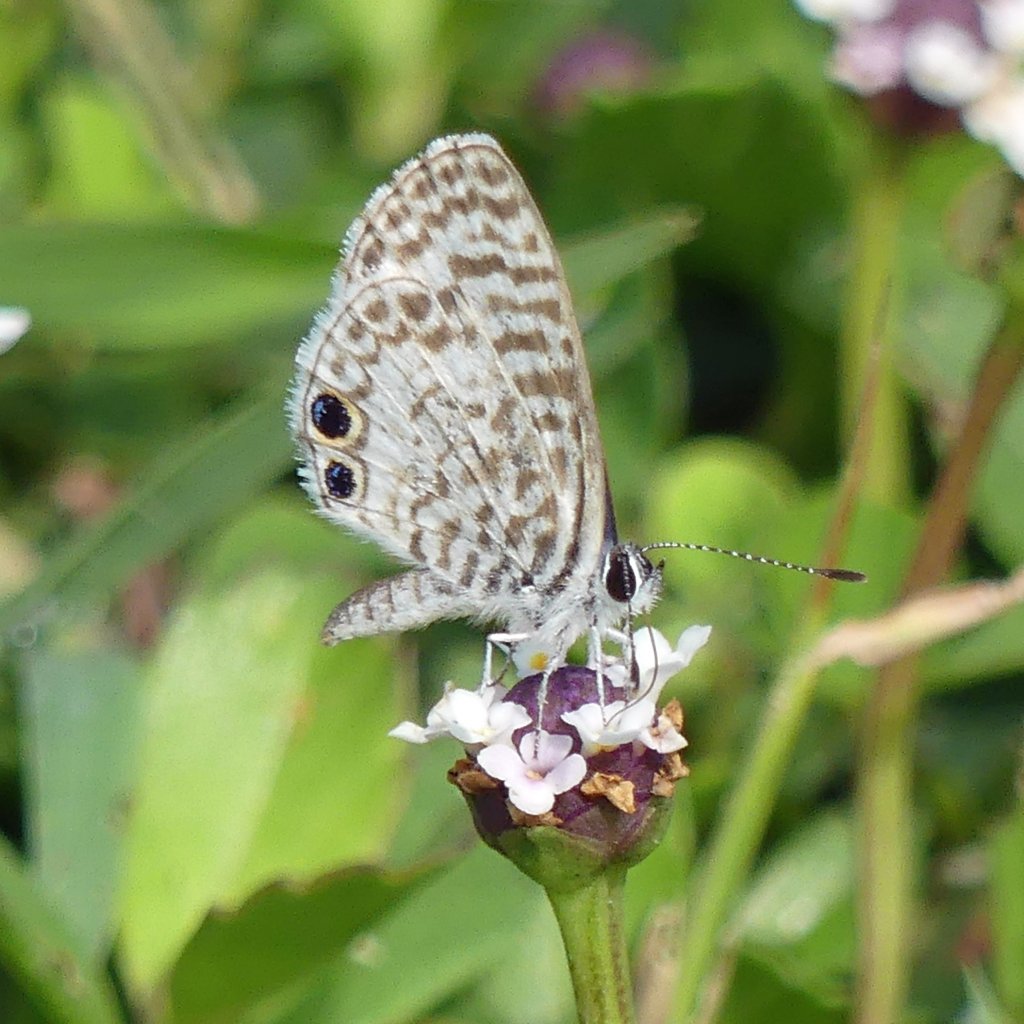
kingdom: Animalia
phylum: Arthropoda
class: Insecta
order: Lepidoptera
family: Lycaenidae
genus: Leptotes
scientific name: Leptotes cassius
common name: Cassius Blue
